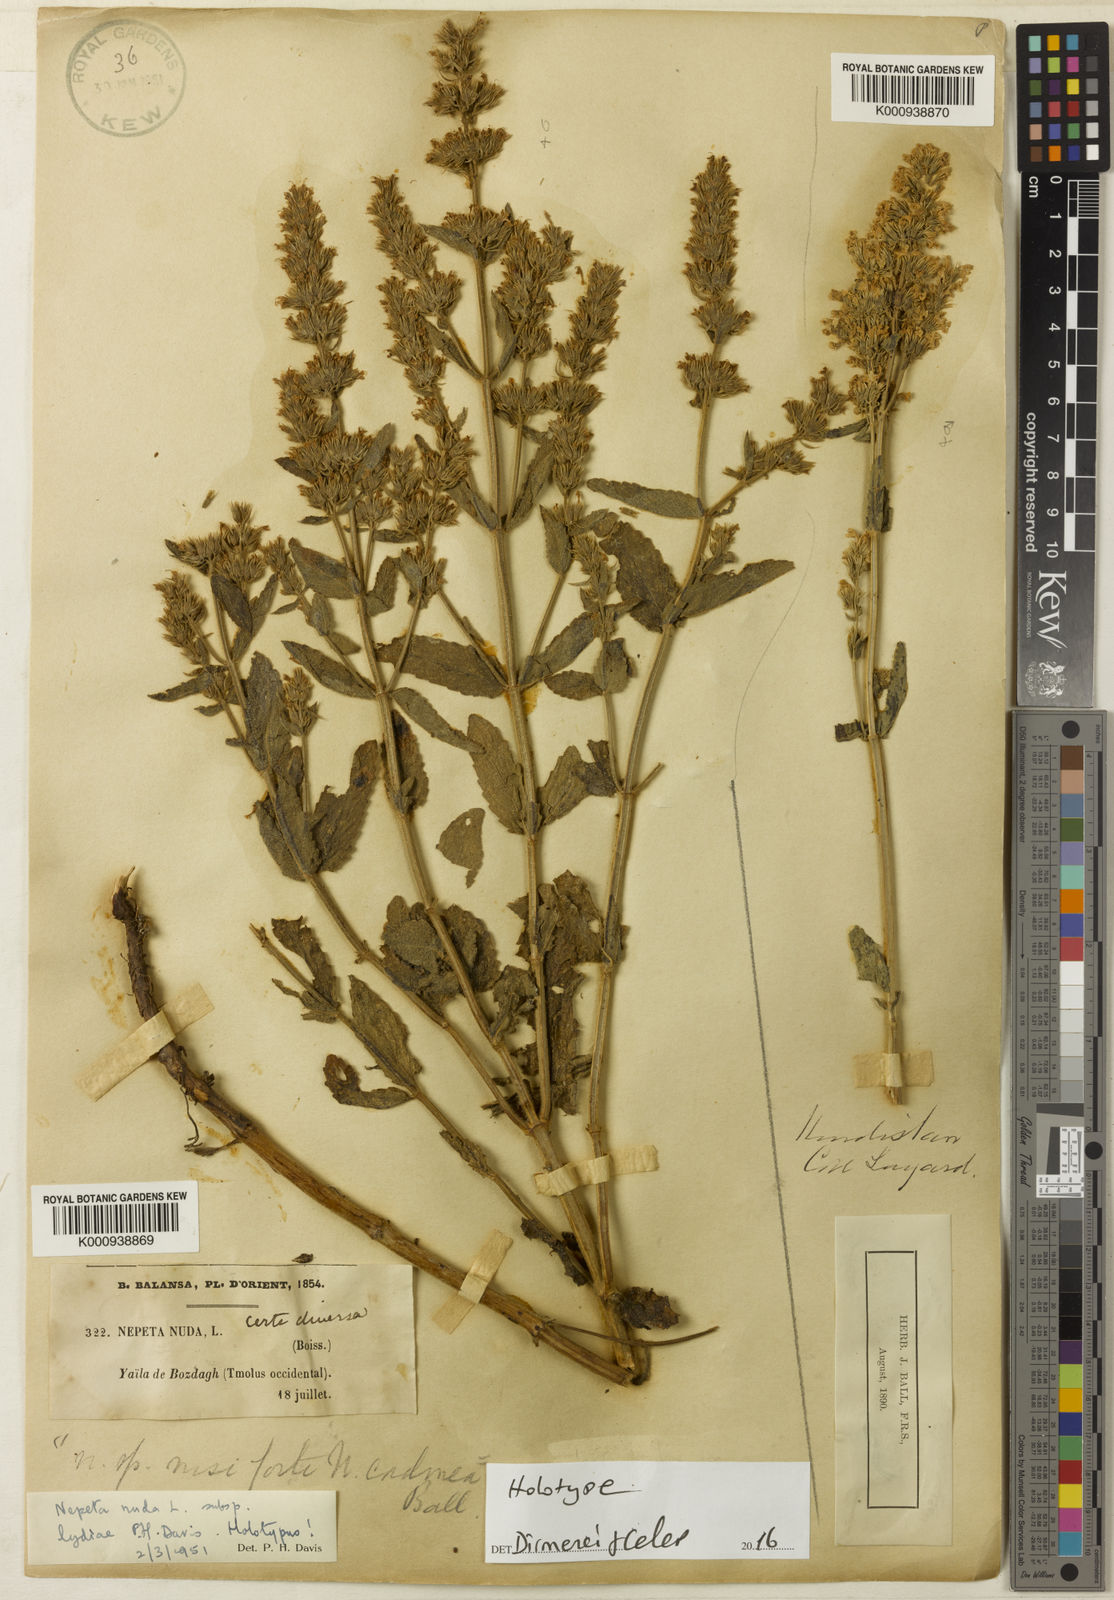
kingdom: Plantae
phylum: Tracheophyta
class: Magnoliopsida
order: Lamiales
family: Lamiaceae
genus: Nepeta
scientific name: Nepeta nuda
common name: Hairless catmint
